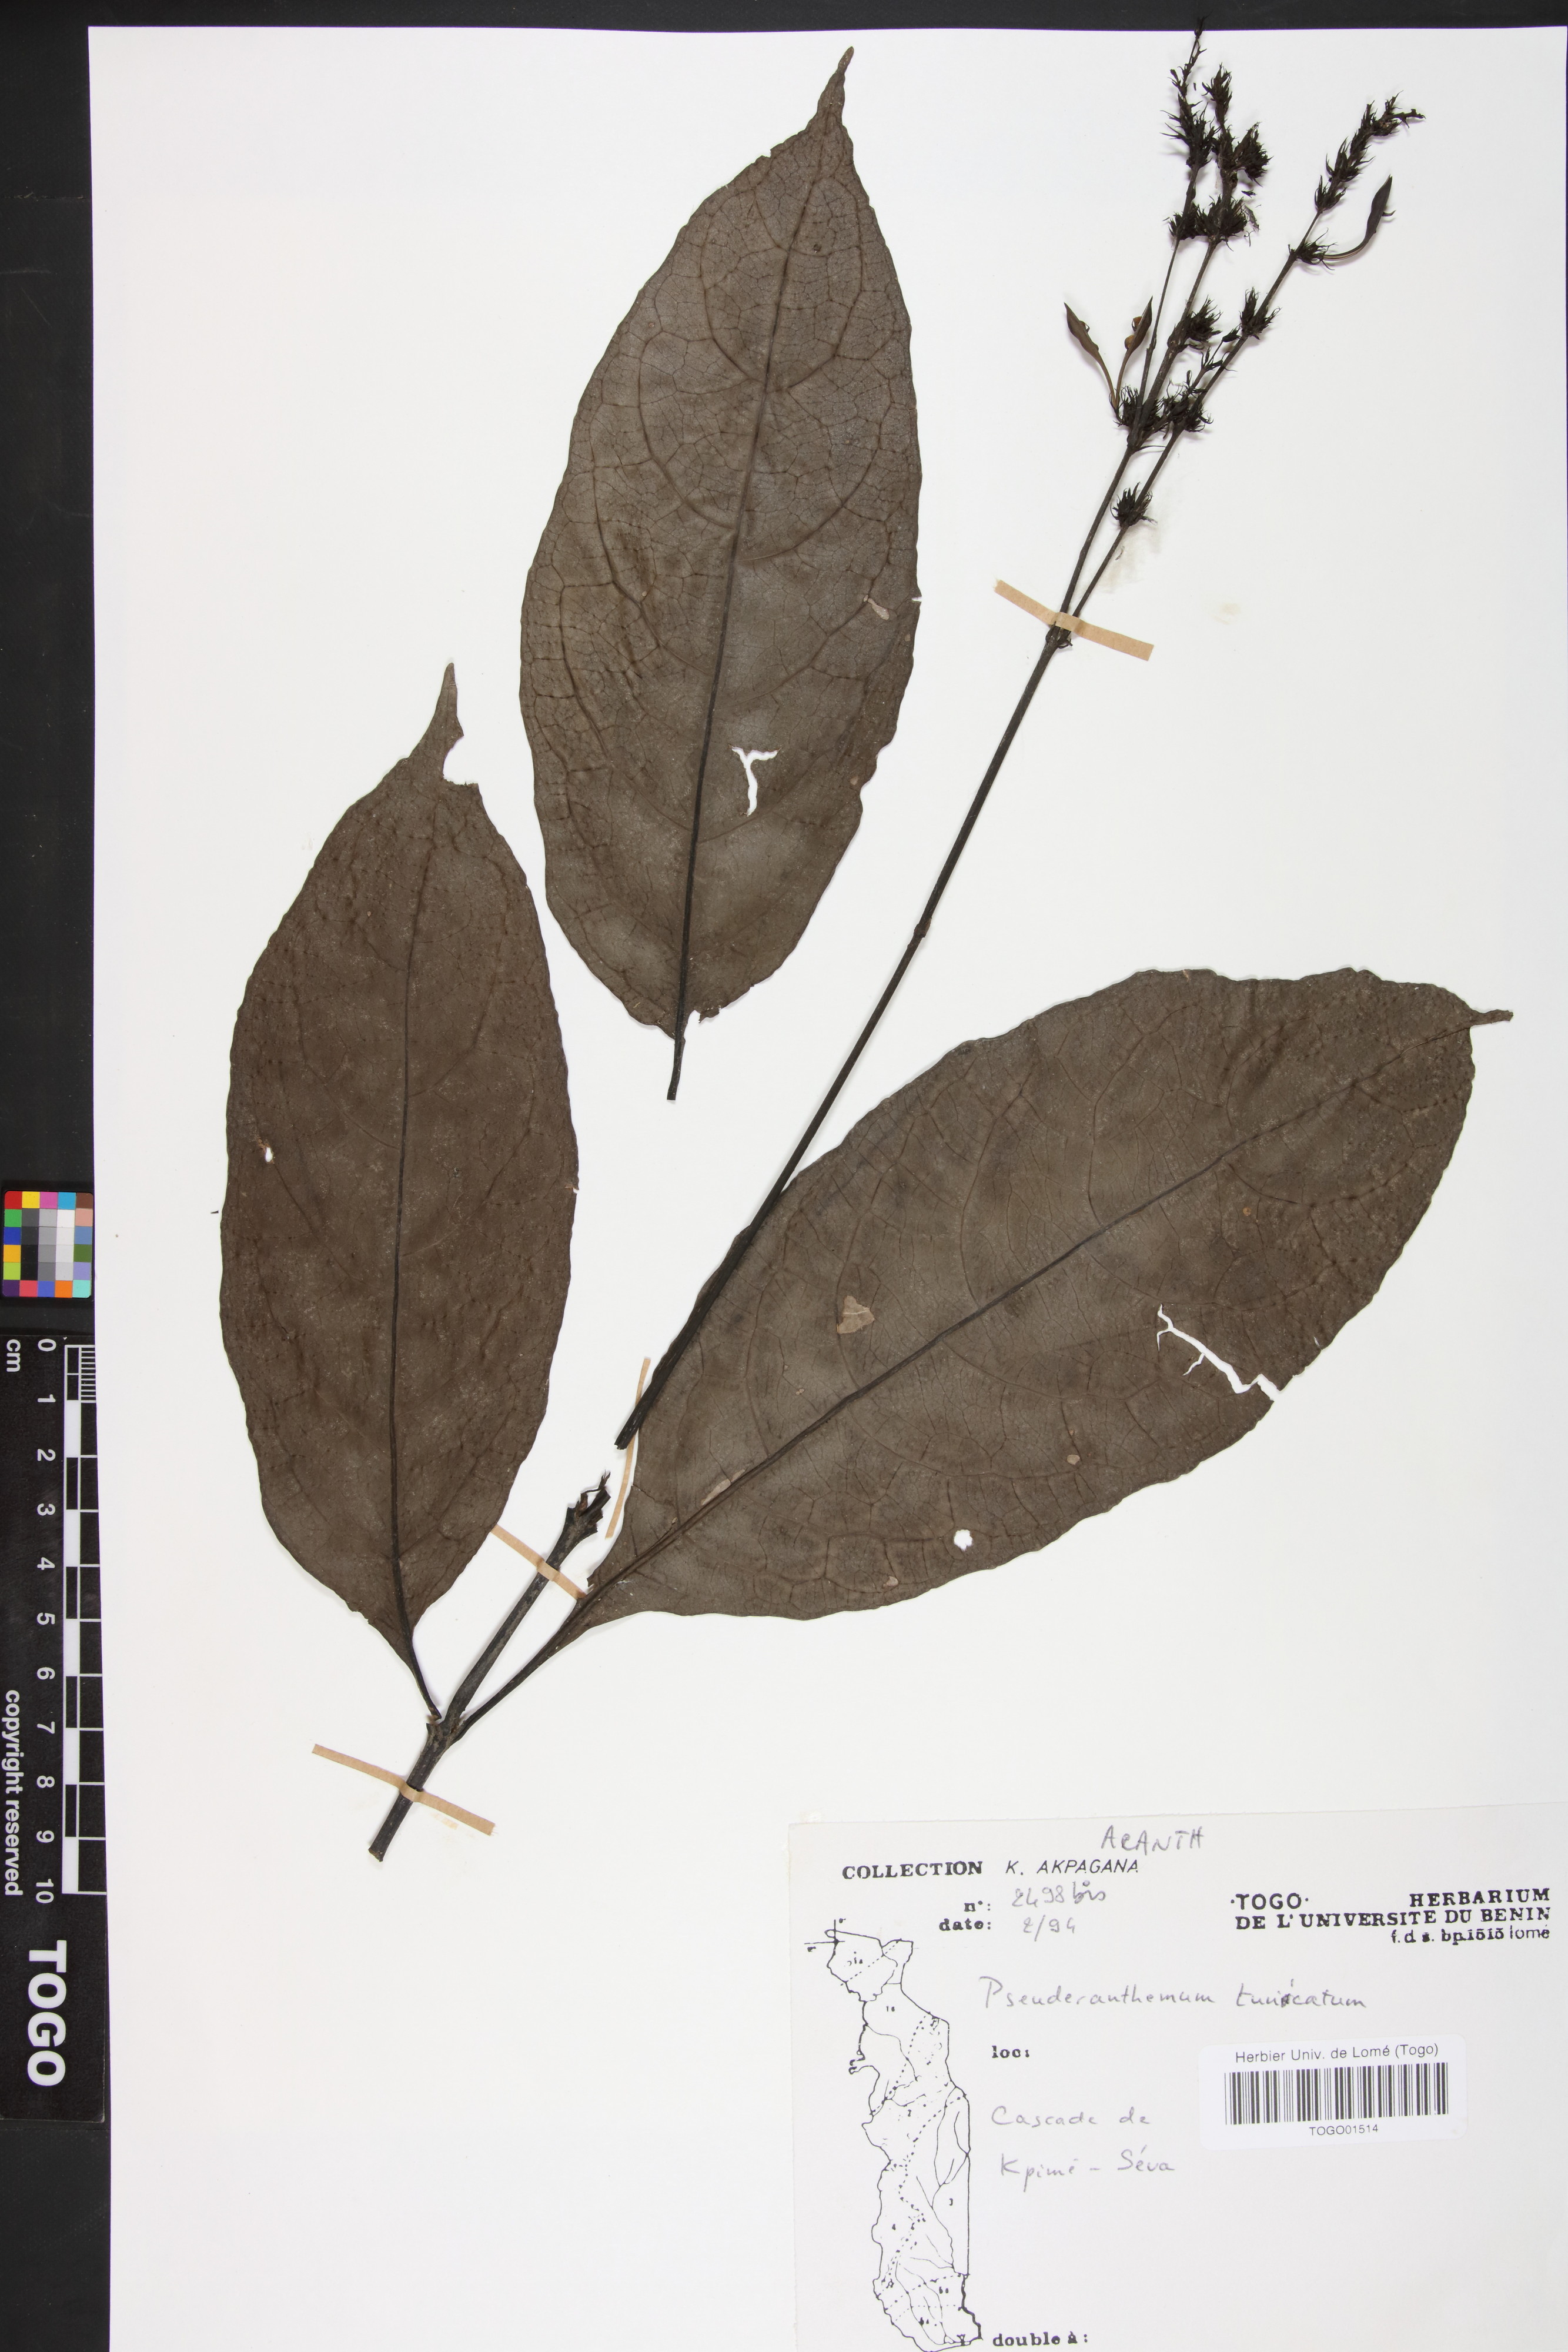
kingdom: Plantae
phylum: Tracheophyta
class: Magnoliopsida
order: Lamiales
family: Acanthaceae
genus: Pseuderanthemum
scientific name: Pseuderanthemum tunicatum
